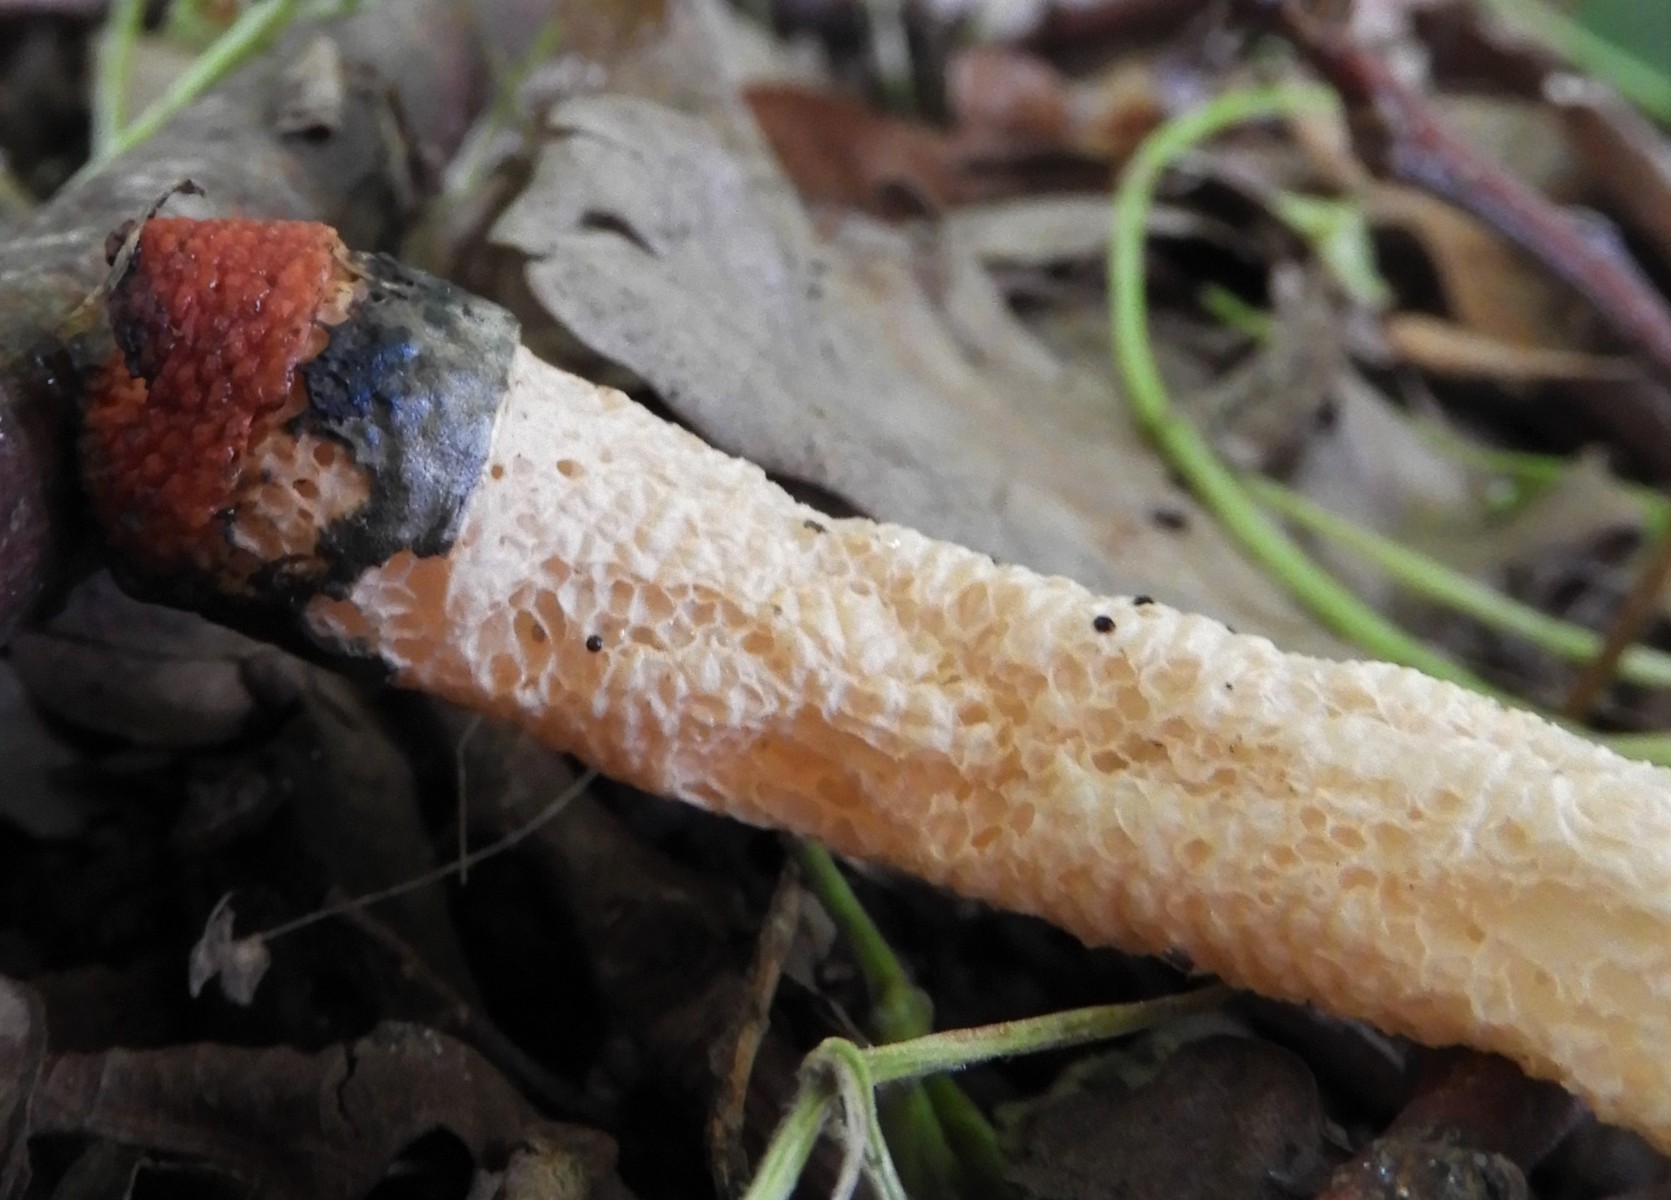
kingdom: Fungi
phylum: Basidiomycota
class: Agaricomycetes
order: Phallales
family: Phallaceae
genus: Mutinus
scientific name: Mutinus caninus
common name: hunde-stinksvamp
